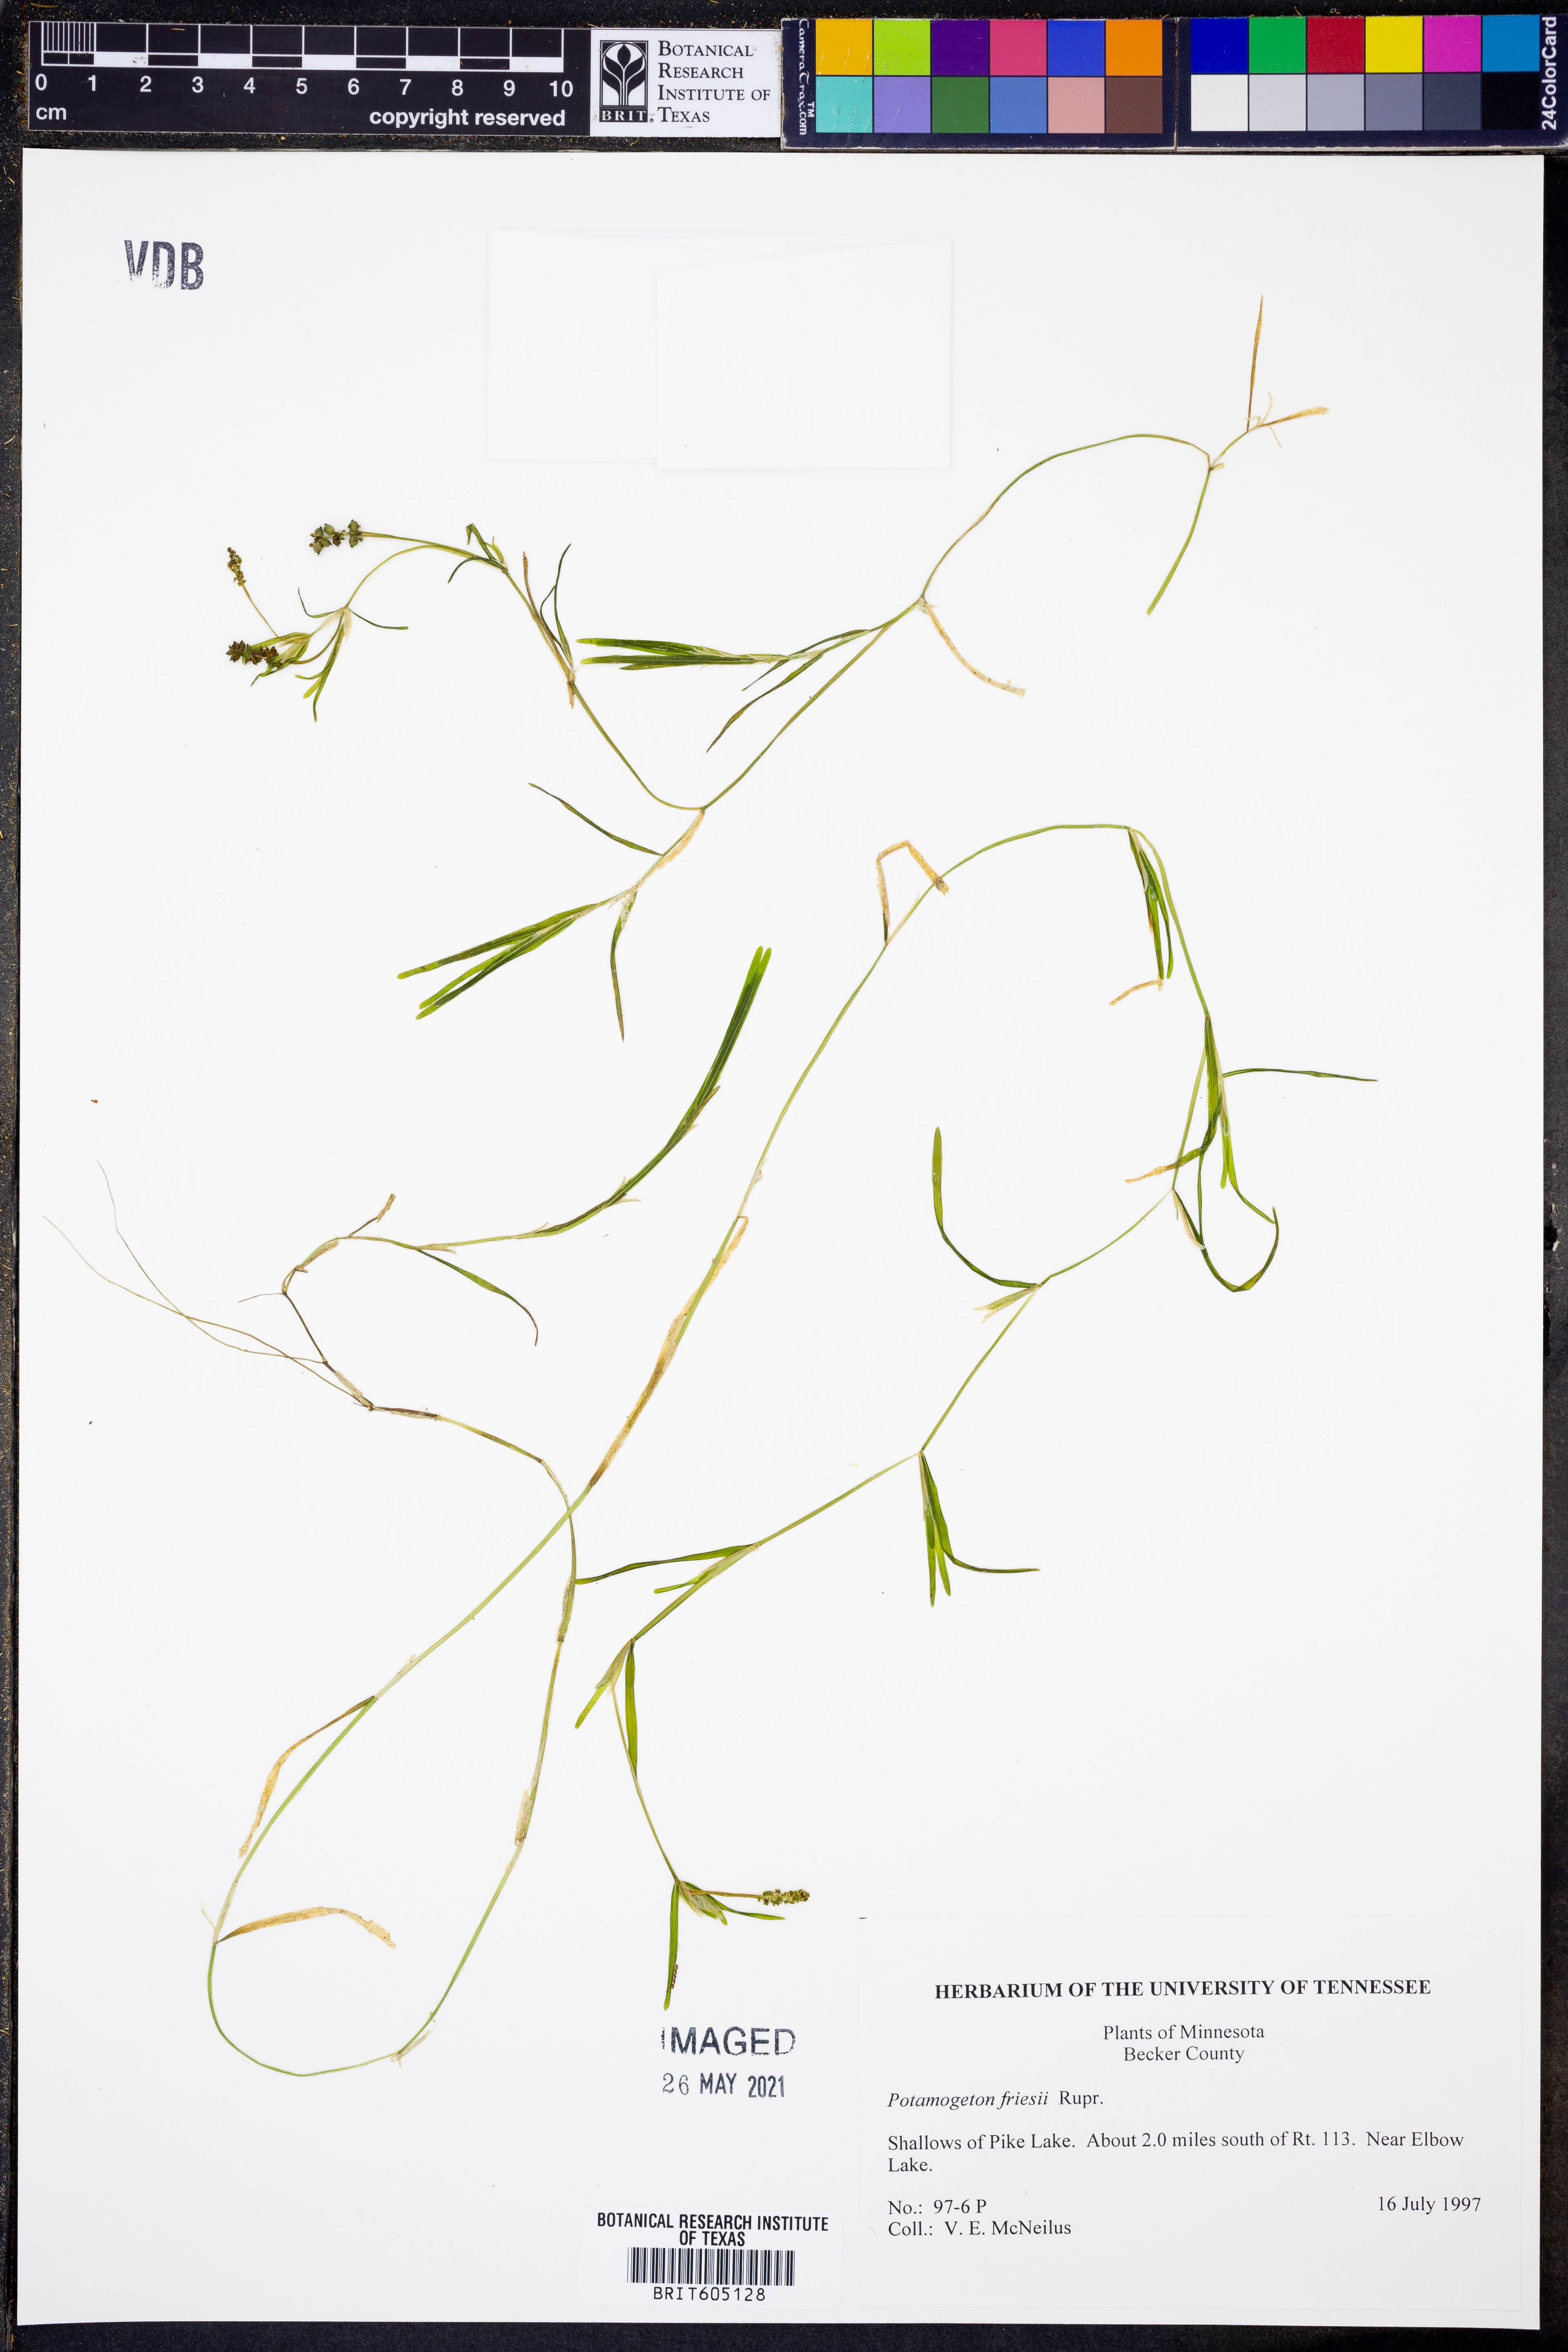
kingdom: Plantae
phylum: Tracheophyta
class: Liliopsida
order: Alismatales
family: Potamogetonaceae
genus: Potamogeton
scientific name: Potamogeton friesii
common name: Flat-stalked pondweed
